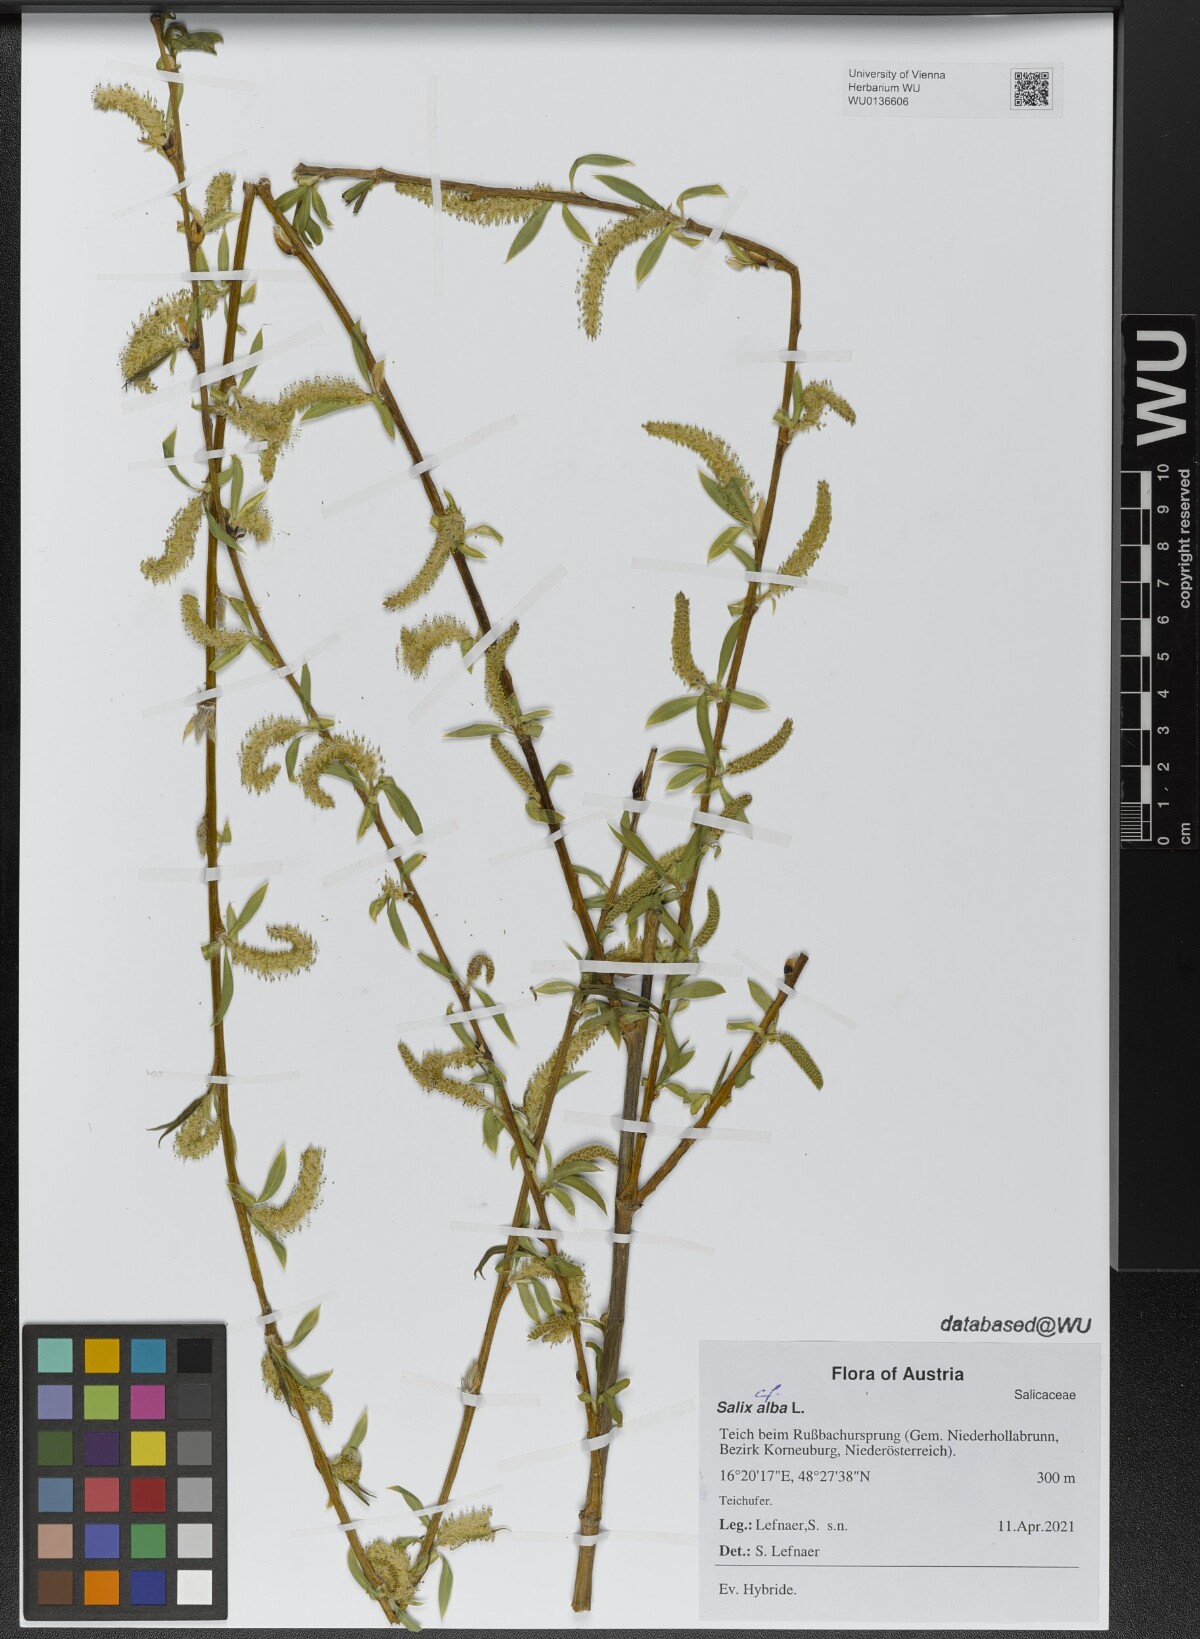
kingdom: Plantae
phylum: Tracheophyta
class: Magnoliopsida
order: Malpighiales
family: Salicaceae
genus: Salix
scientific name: Salix alba
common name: White willow
